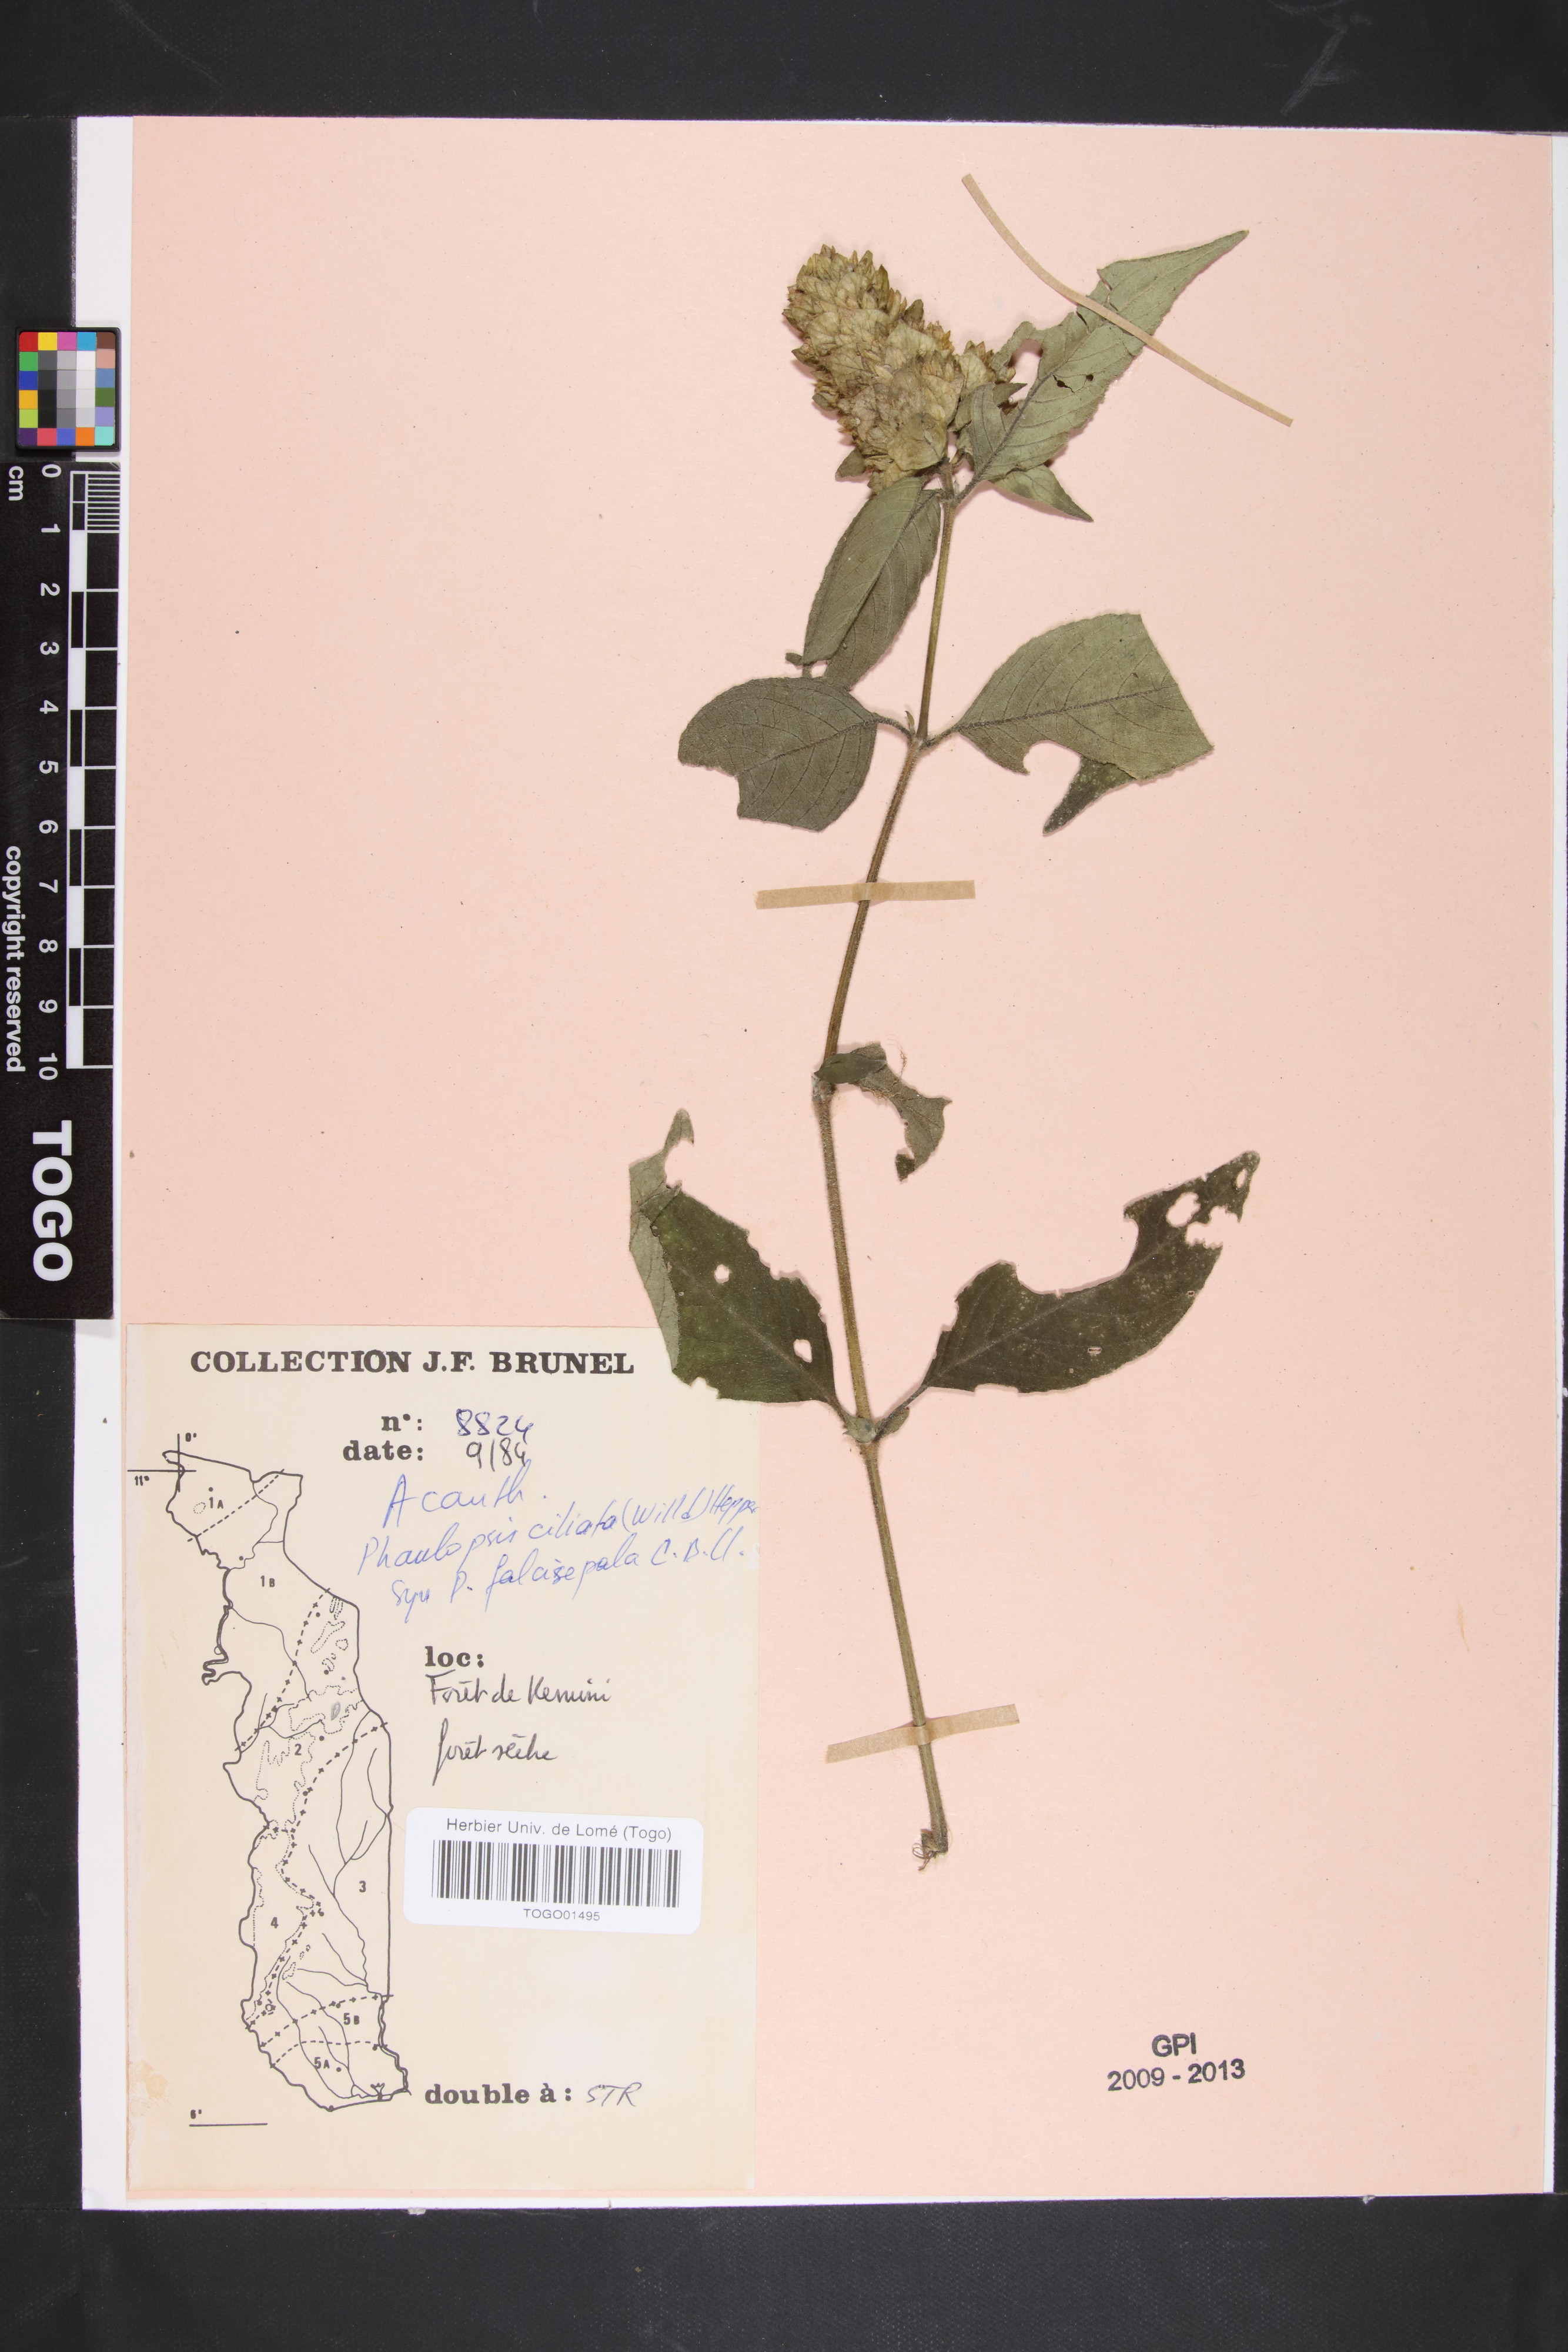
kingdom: Plantae
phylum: Tracheophyta
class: Magnoliopsida
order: Lamiales
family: Acanthaceae
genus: Phaulopsis
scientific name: Phaulopsis ciliata
